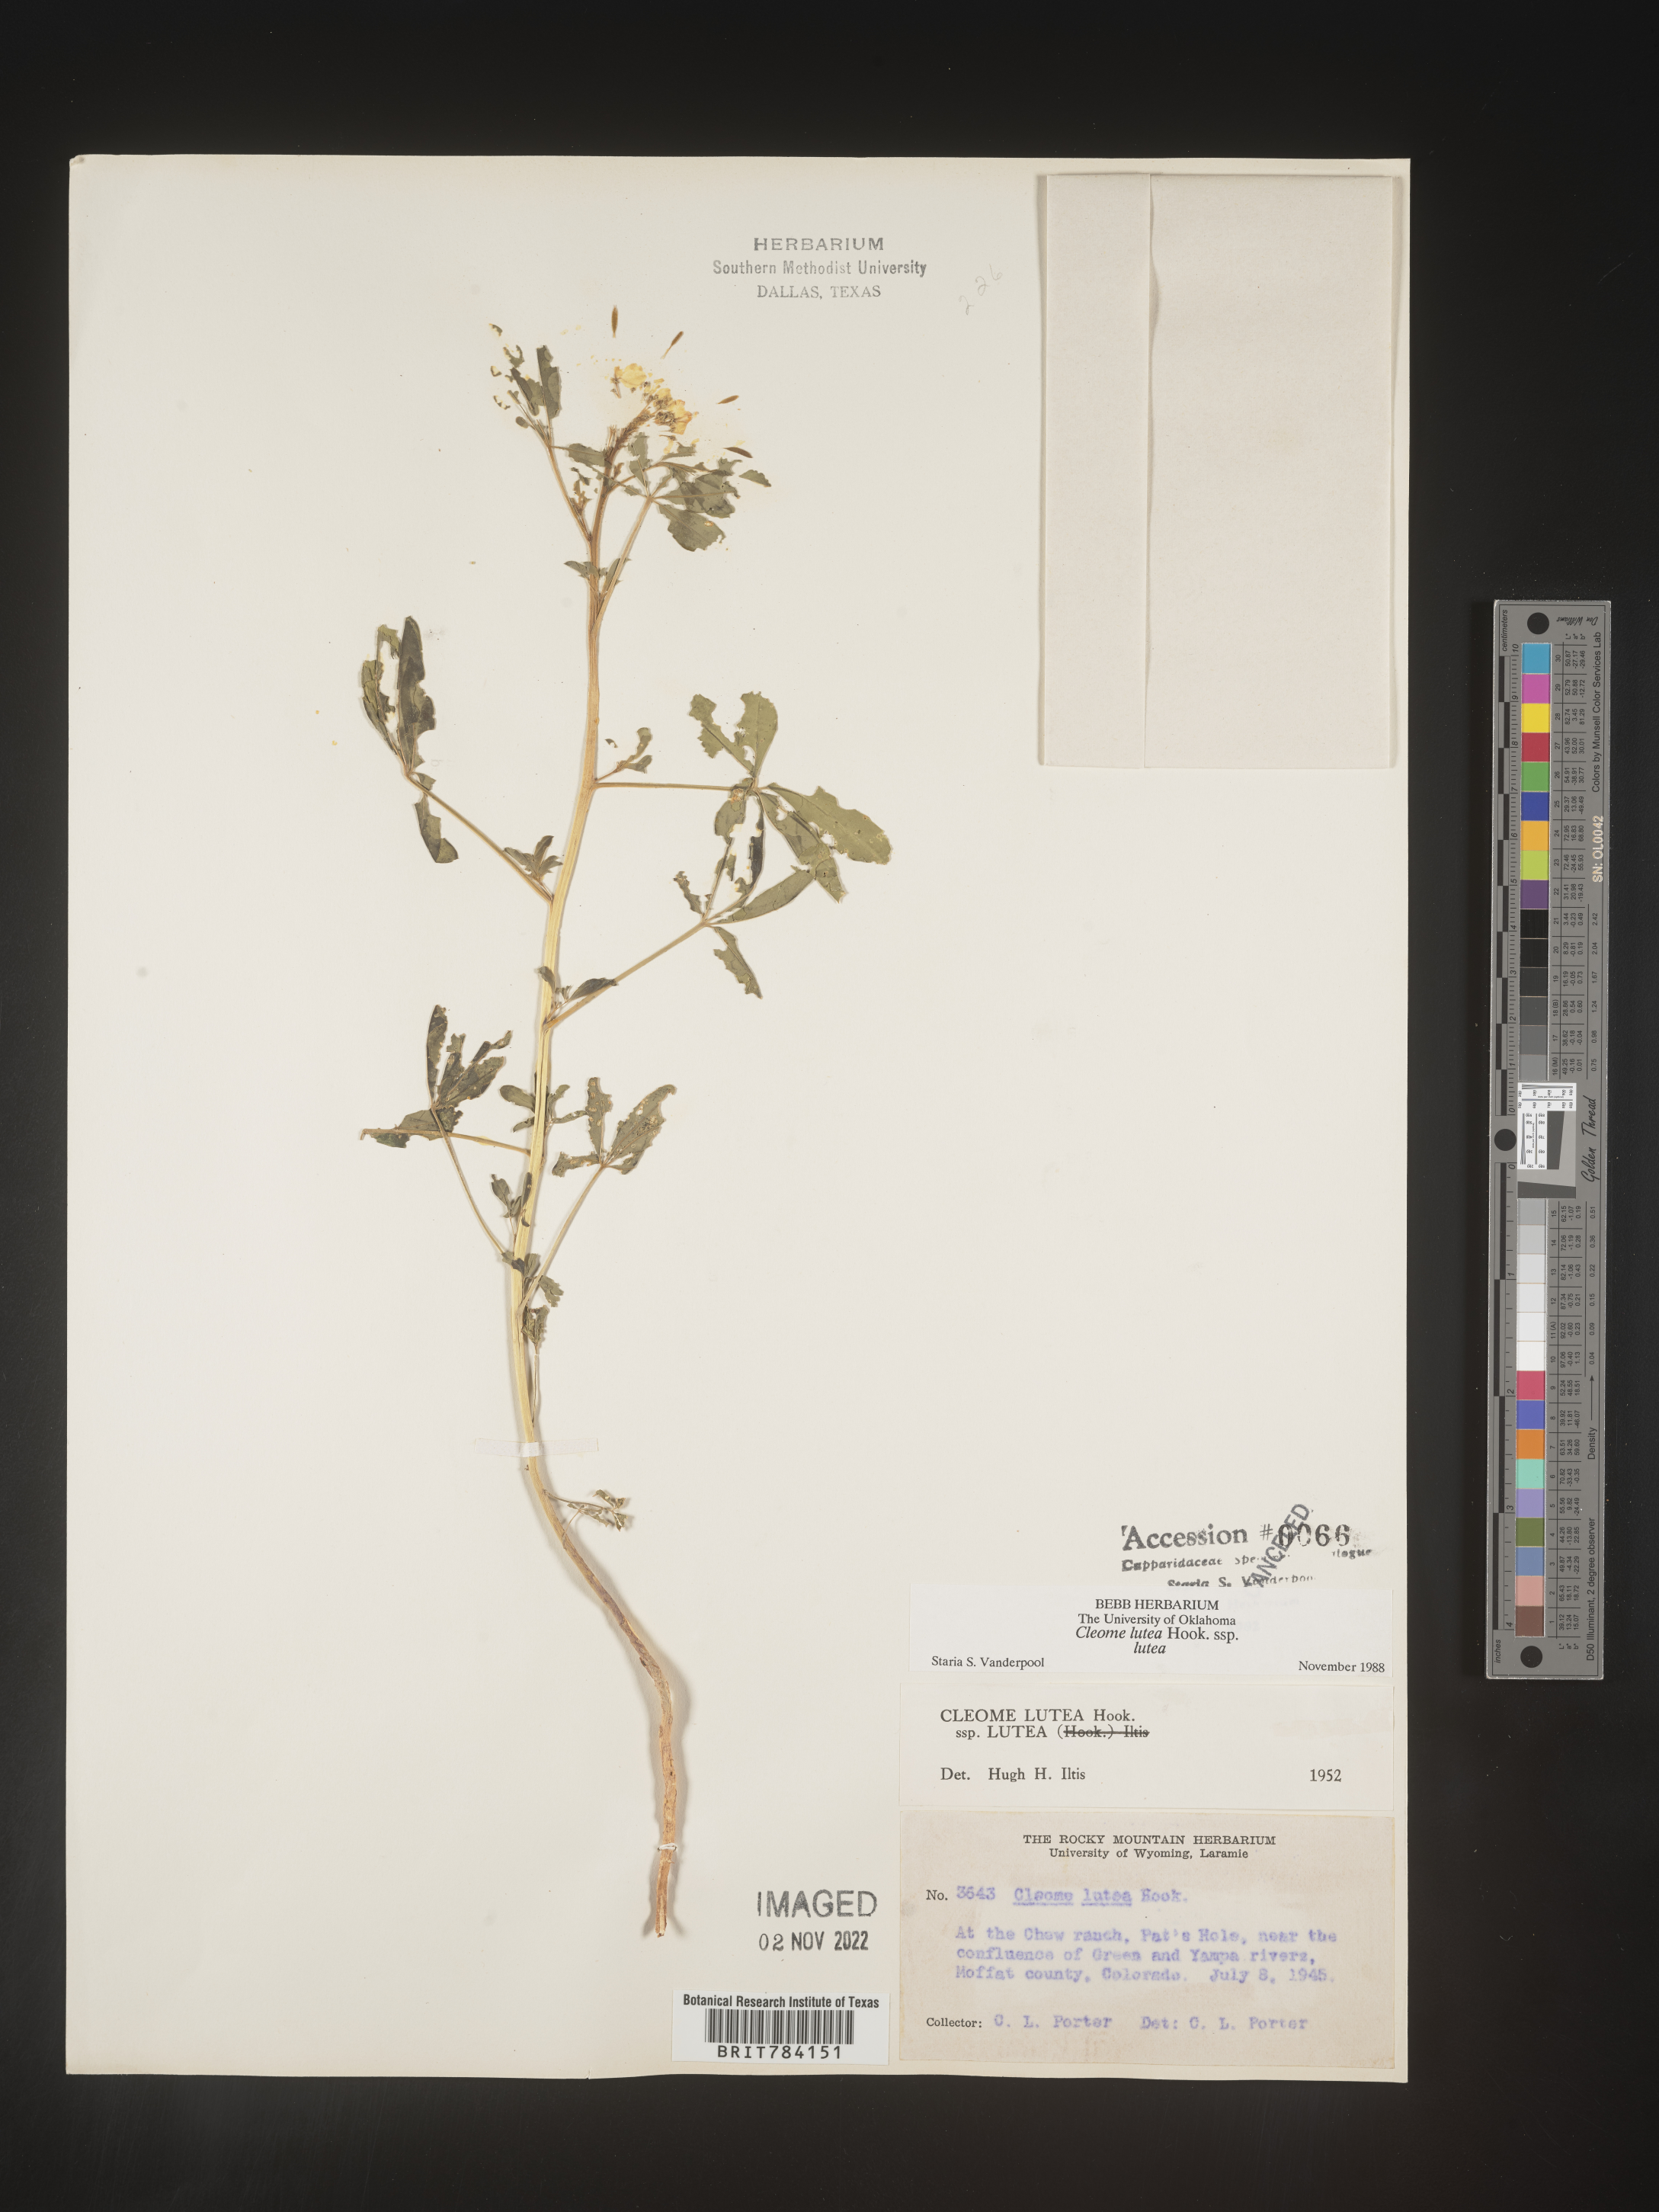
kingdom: Plantae
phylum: Tracheophyta
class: Magnoliopsida
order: Brassicales
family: Cleomaceae
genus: Cleomella
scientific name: Cleomella lutea
